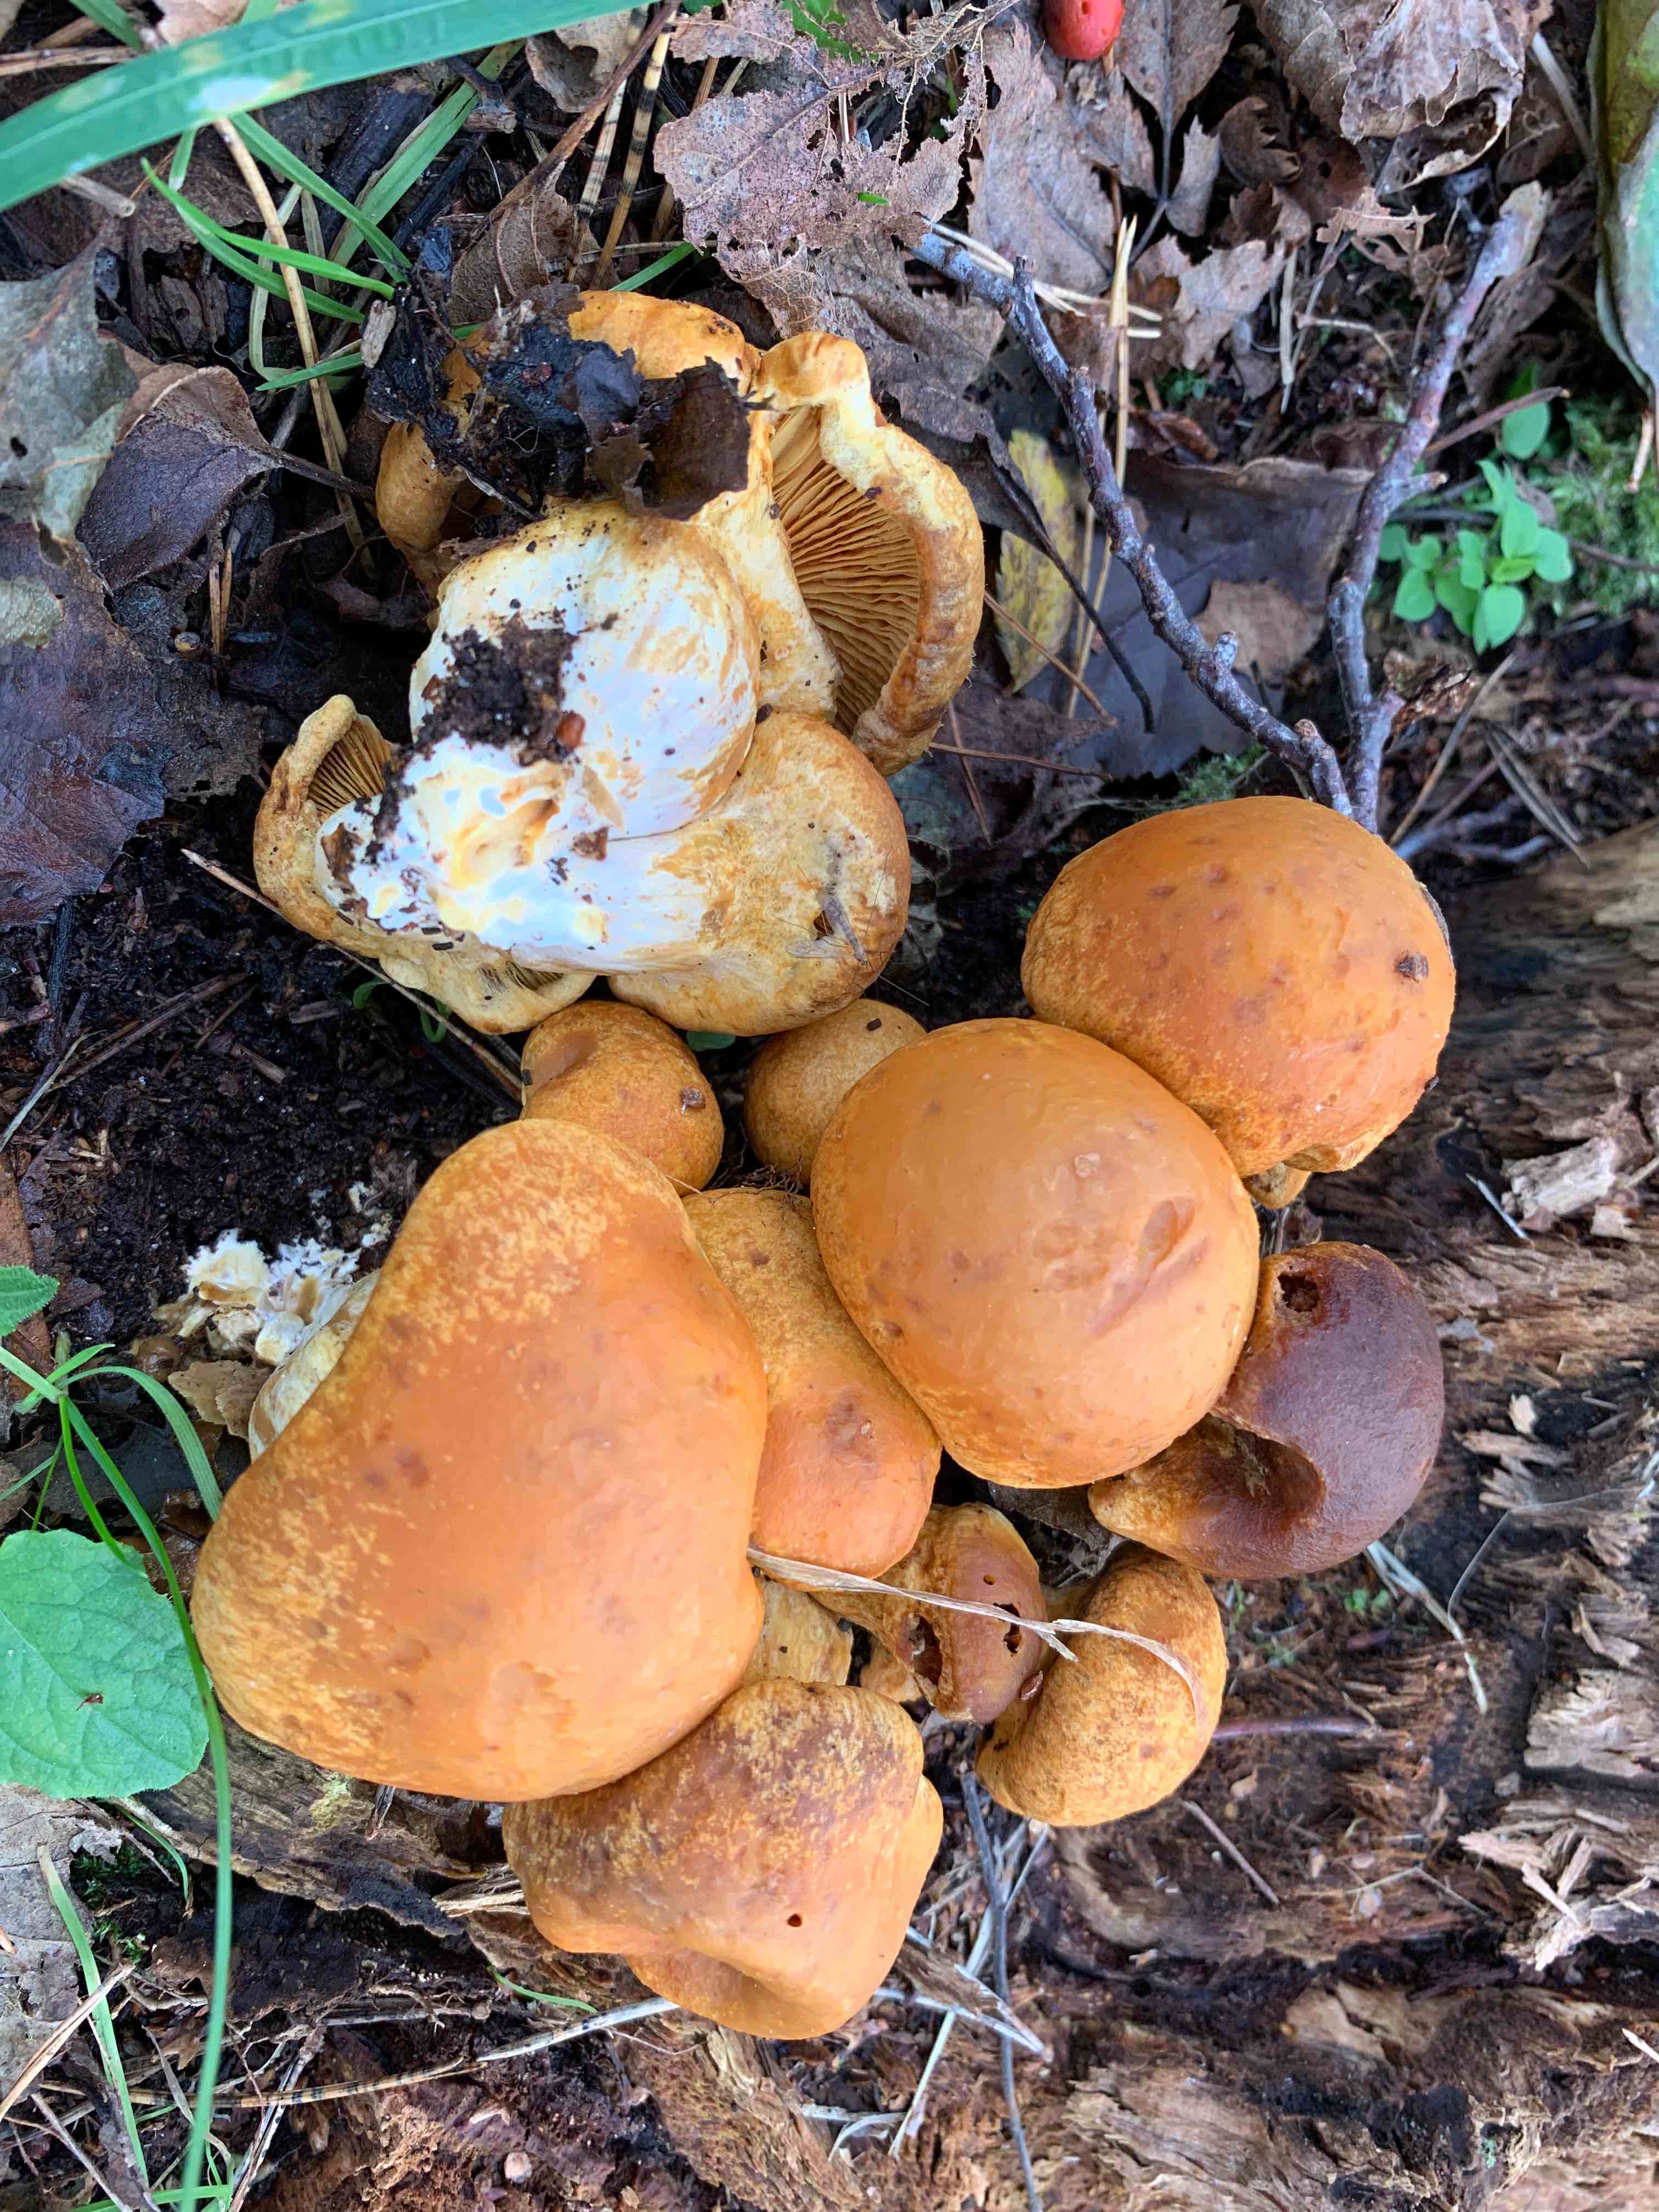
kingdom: Fungi
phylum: Basidiomycota
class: Agaricomycetes
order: Agaricales
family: Hymenogastraceae
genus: Gymnopilus
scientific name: Gymnopilus spectabilis
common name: fibret flammehat
